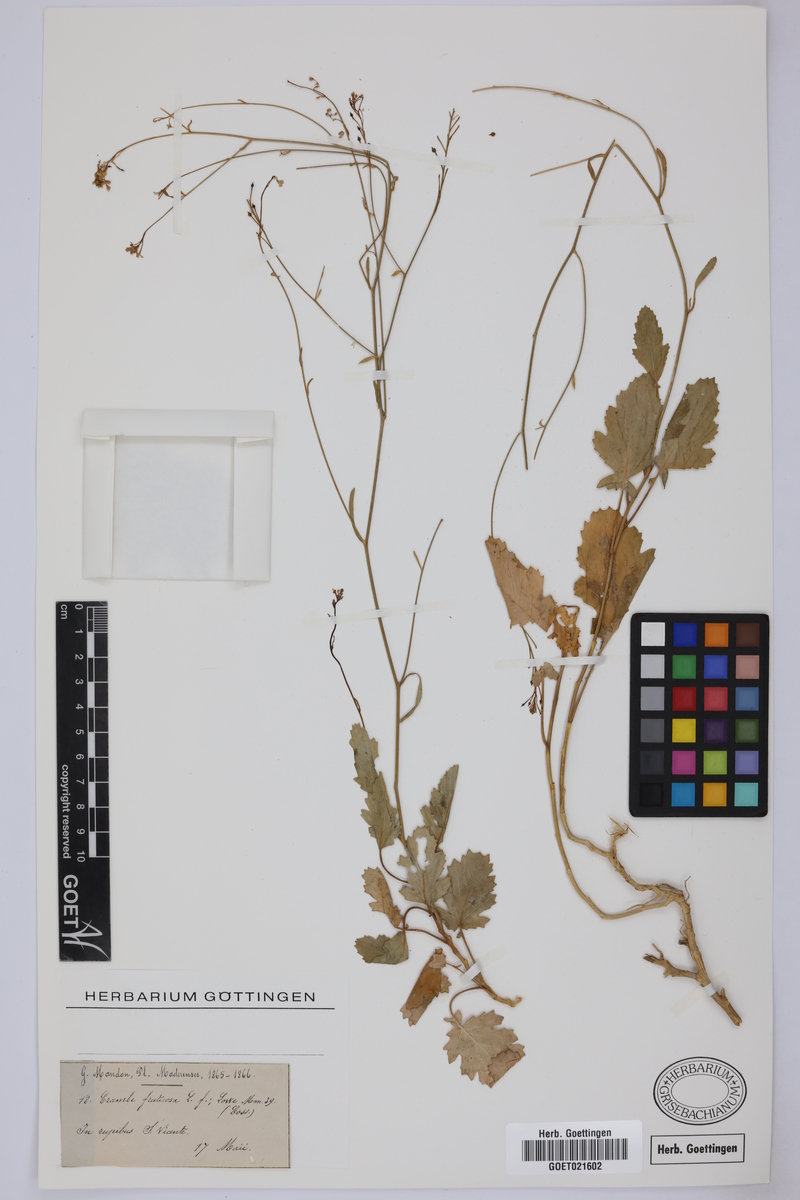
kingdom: Plantae
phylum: Tracheophyta
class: Magnoliopsida
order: Brassicales
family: Brassicaceae
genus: Crambe
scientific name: Crambe fruticosa
